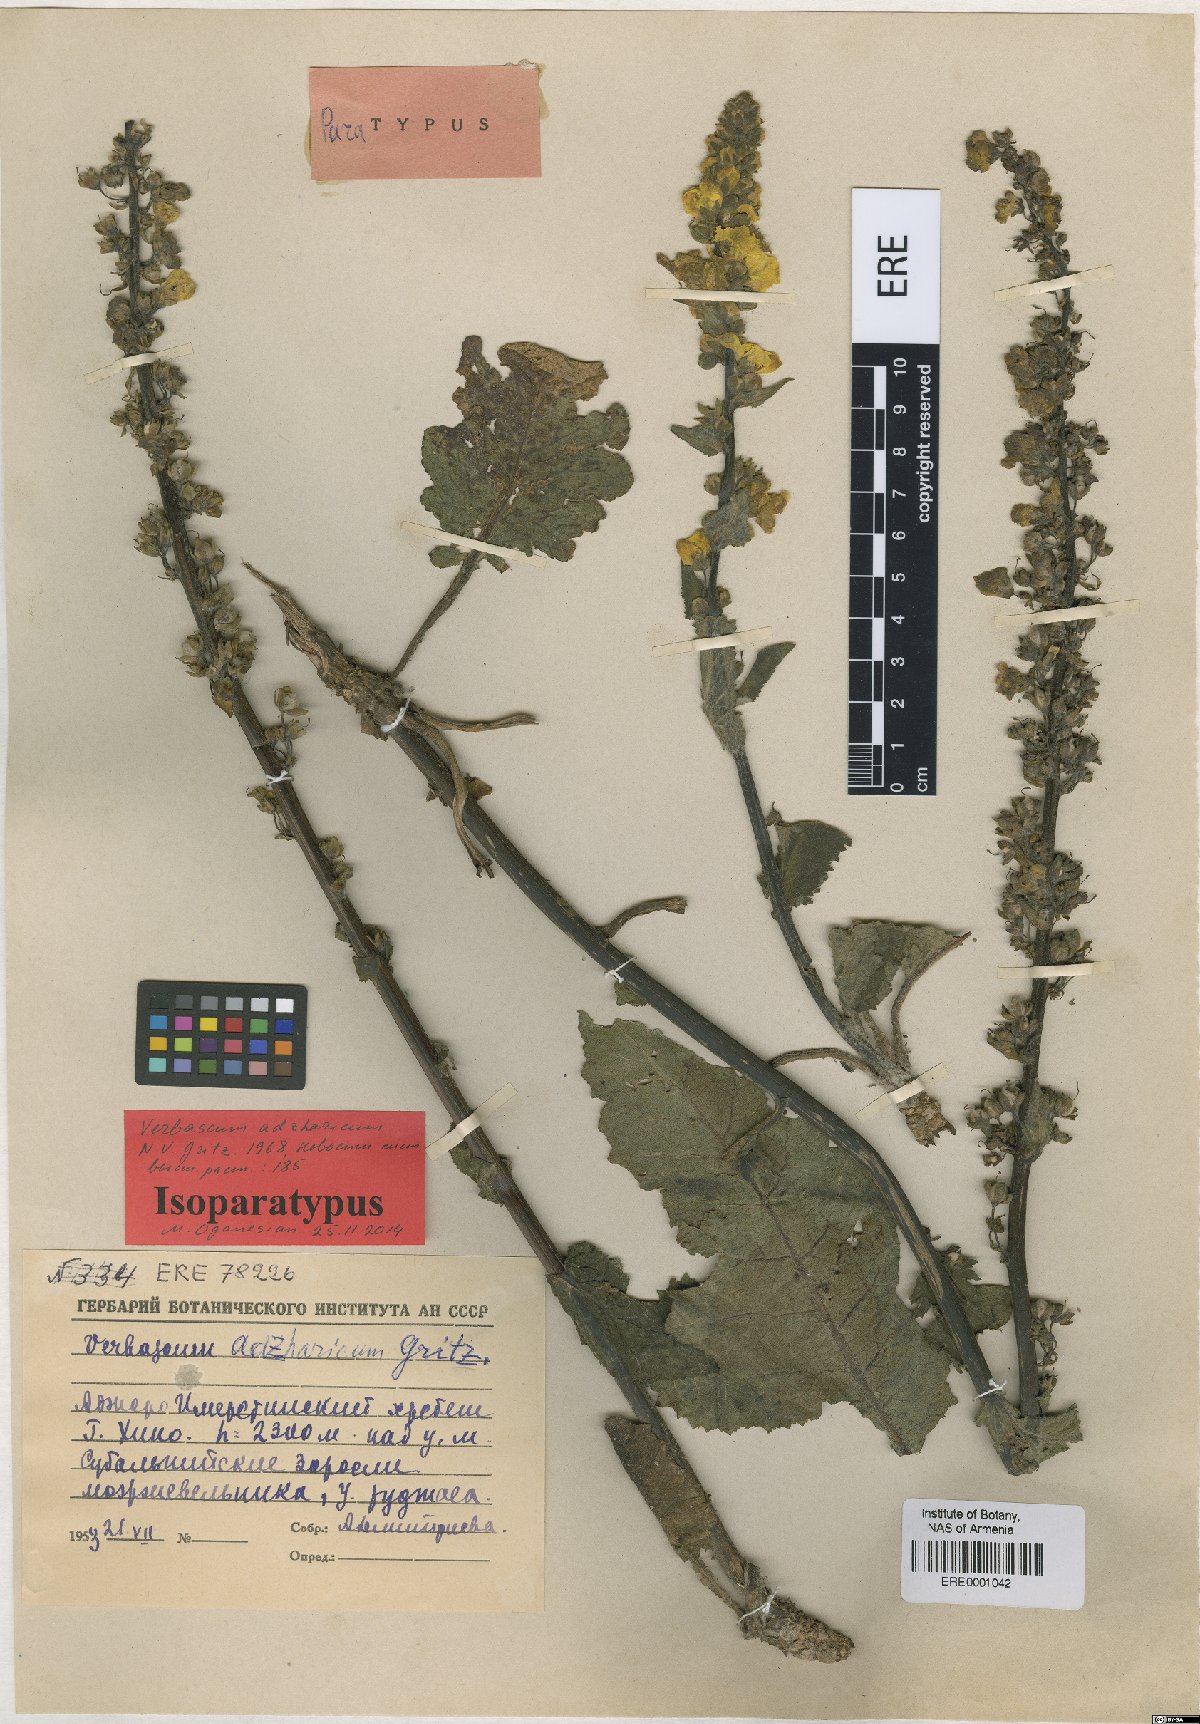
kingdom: Plantae
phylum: Tracheophyta
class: Magnoliopsida
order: Lamiales
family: Scrophulariaceae
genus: Verbascum
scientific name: Verbascum adzharicum
